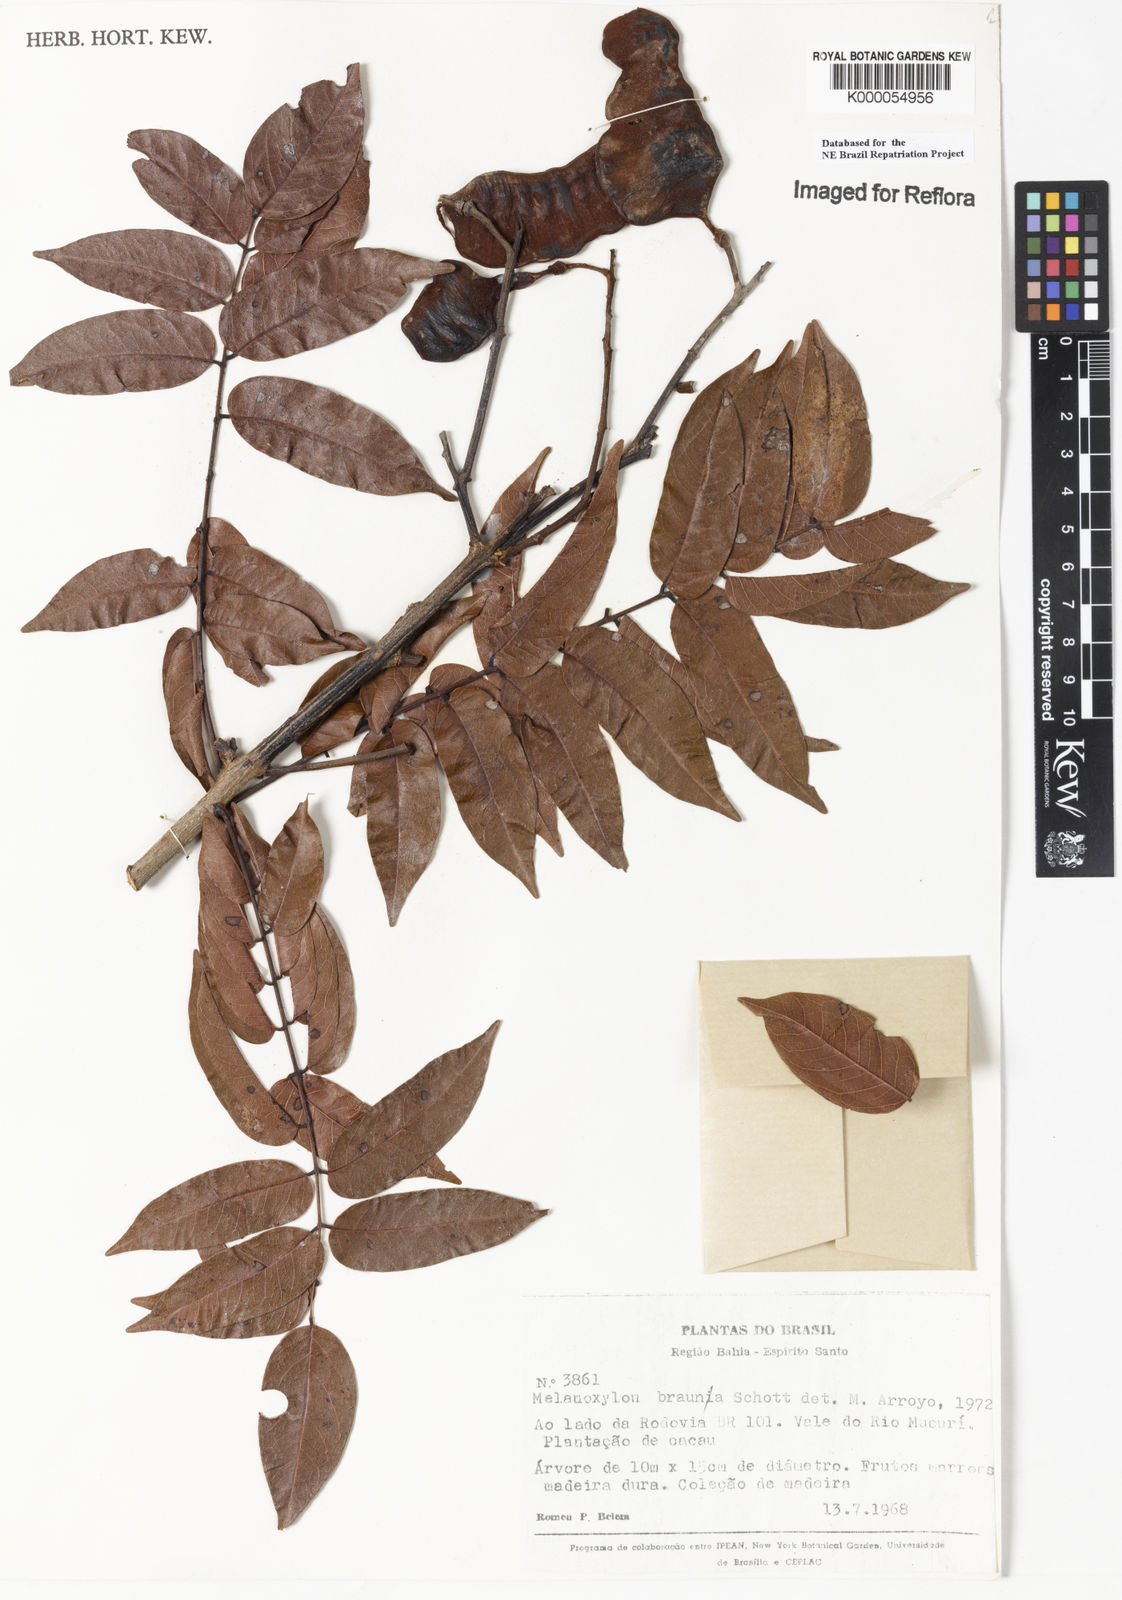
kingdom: Plantae
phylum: Tracheophyta
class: Magnoliopsida
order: Fabales
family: Fabaceae
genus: Melanoxylum
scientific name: Melanoxylum brauna
